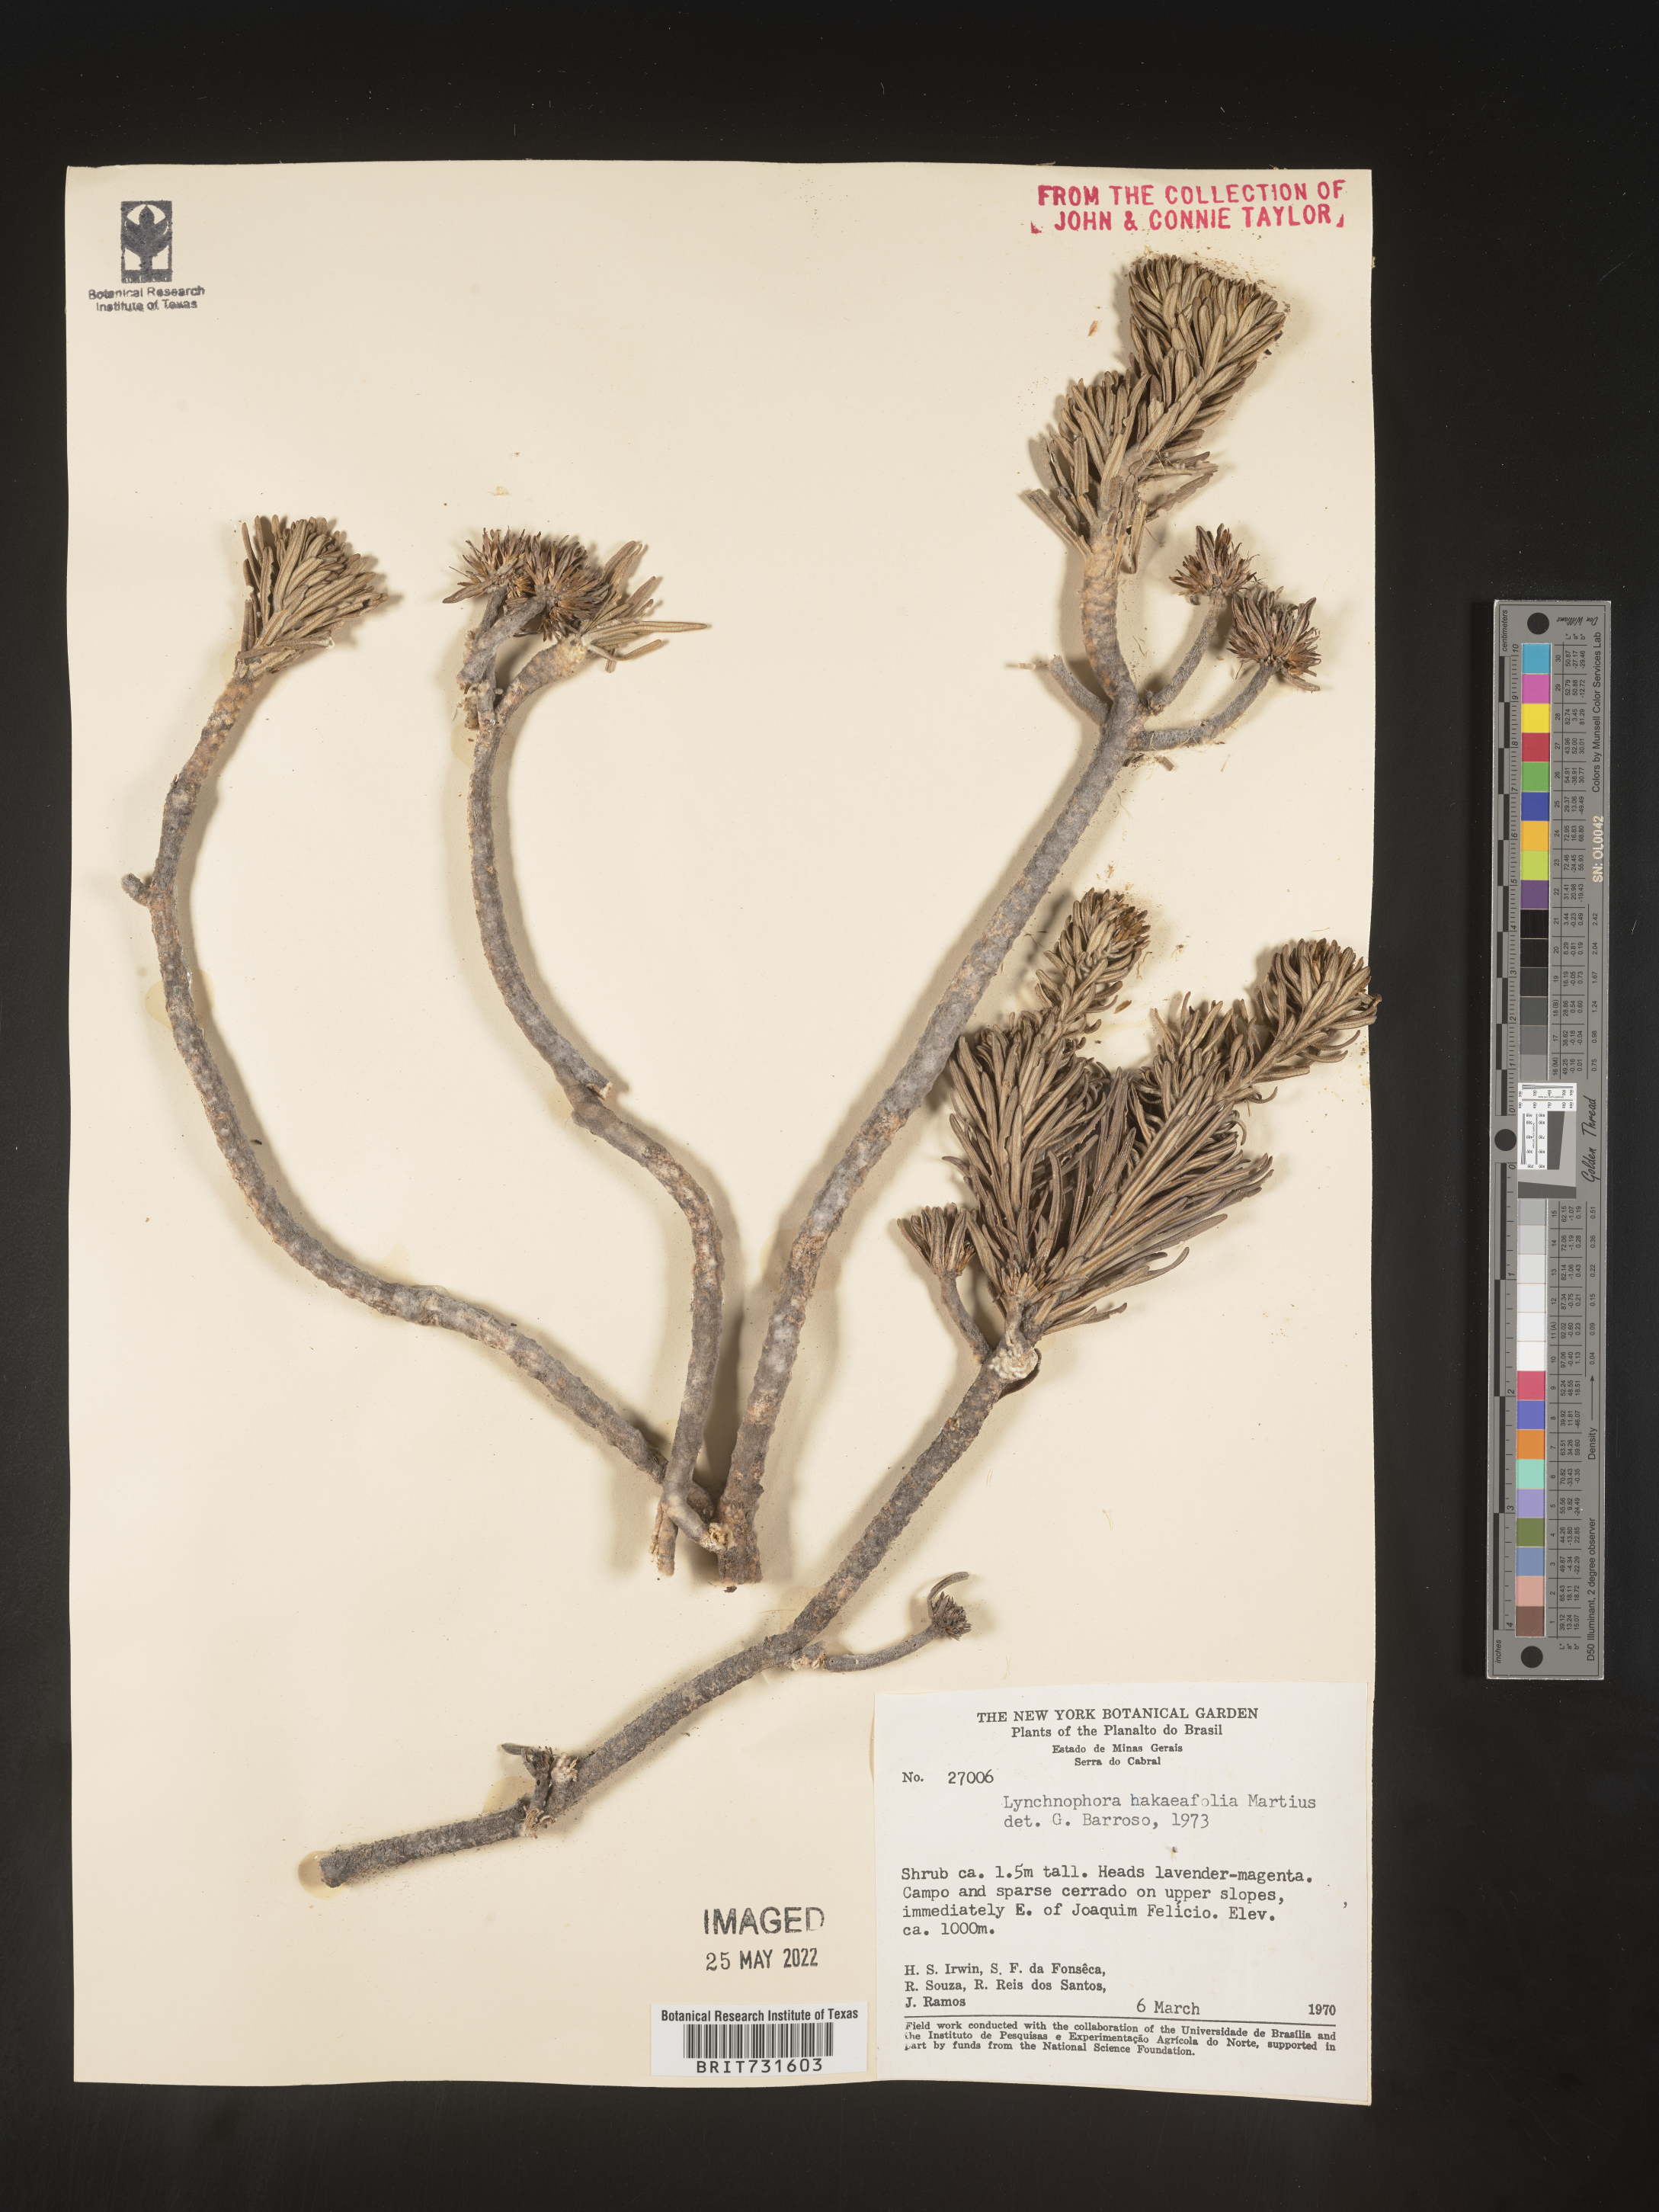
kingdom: Plantae
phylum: Tracheophyta
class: Magnoliopsida
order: Asterales
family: Asteraceae
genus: Lychnophora
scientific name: Lychnophora
